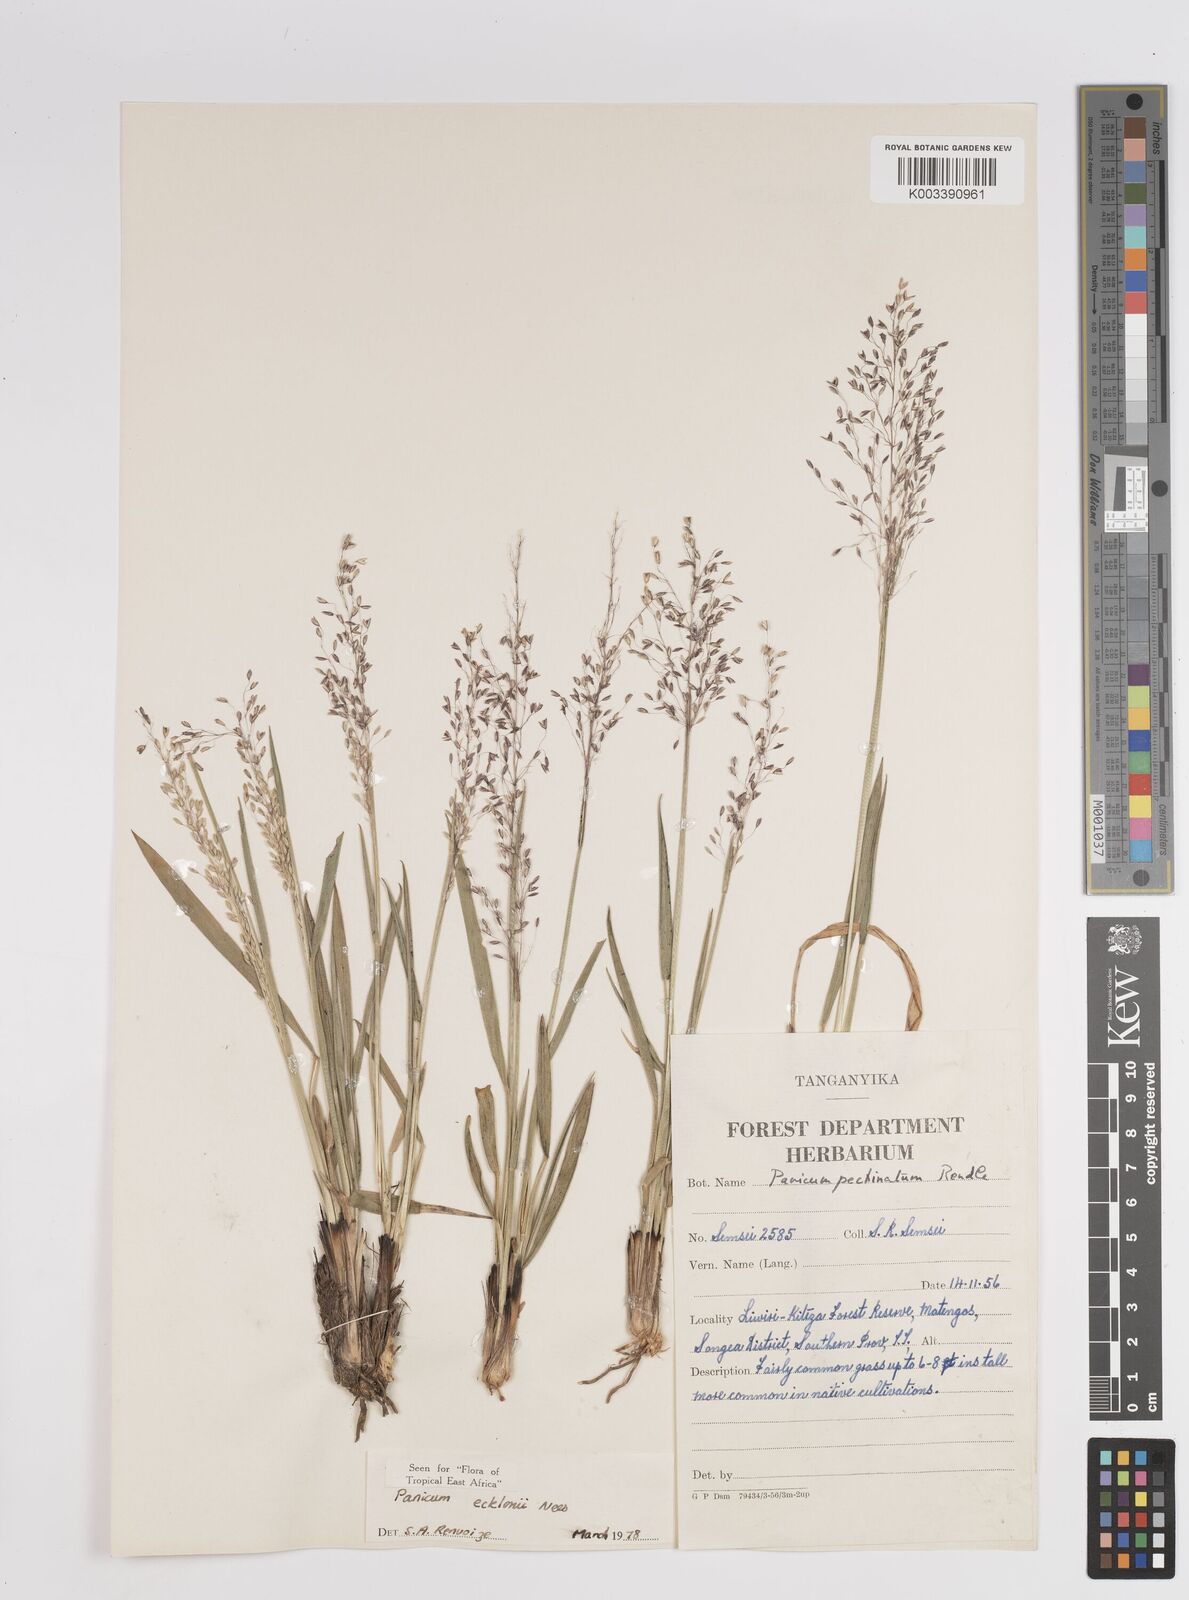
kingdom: Plantae
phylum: Tracheophyta
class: Liliopsida
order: Poales
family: Poaceae
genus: Adenochloa
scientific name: Adenochloa ecklonii
